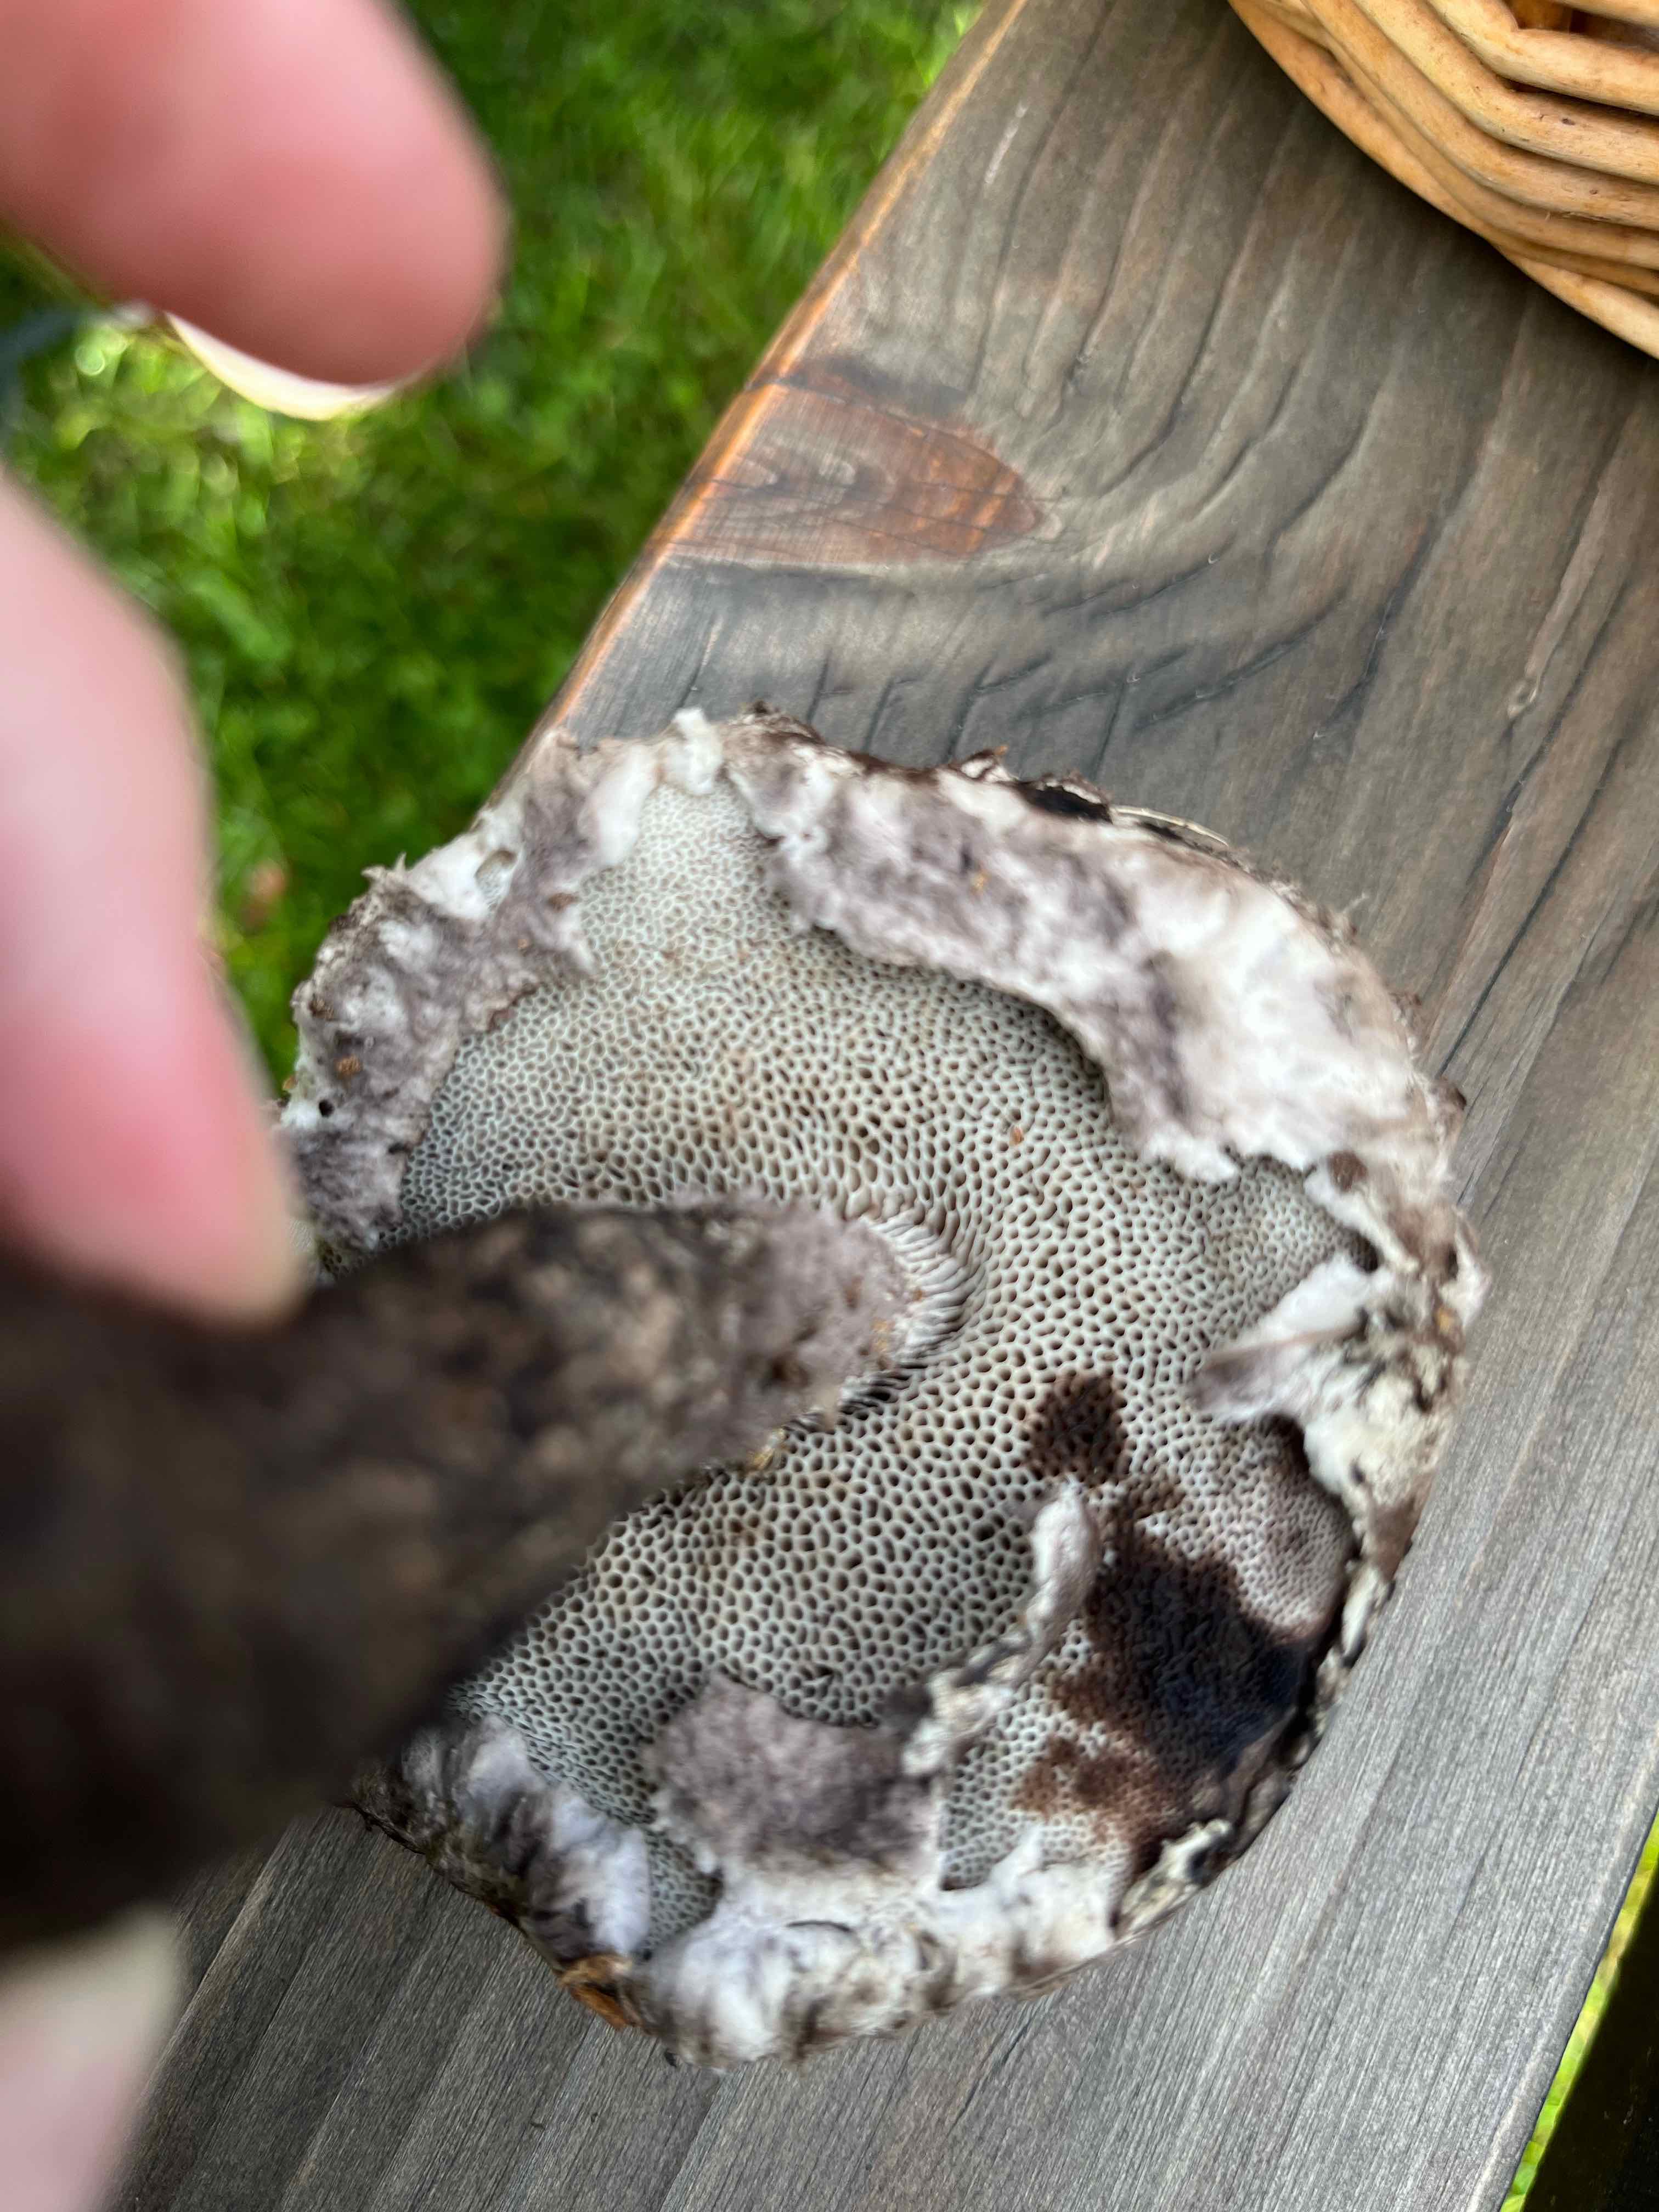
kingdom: Fungi
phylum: Basidiomycota
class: Agaricomycetes
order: Boletales
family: Boletaceae
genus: Strobilomyces
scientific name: Strobilomyces strobilaceus
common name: koglerørhat
